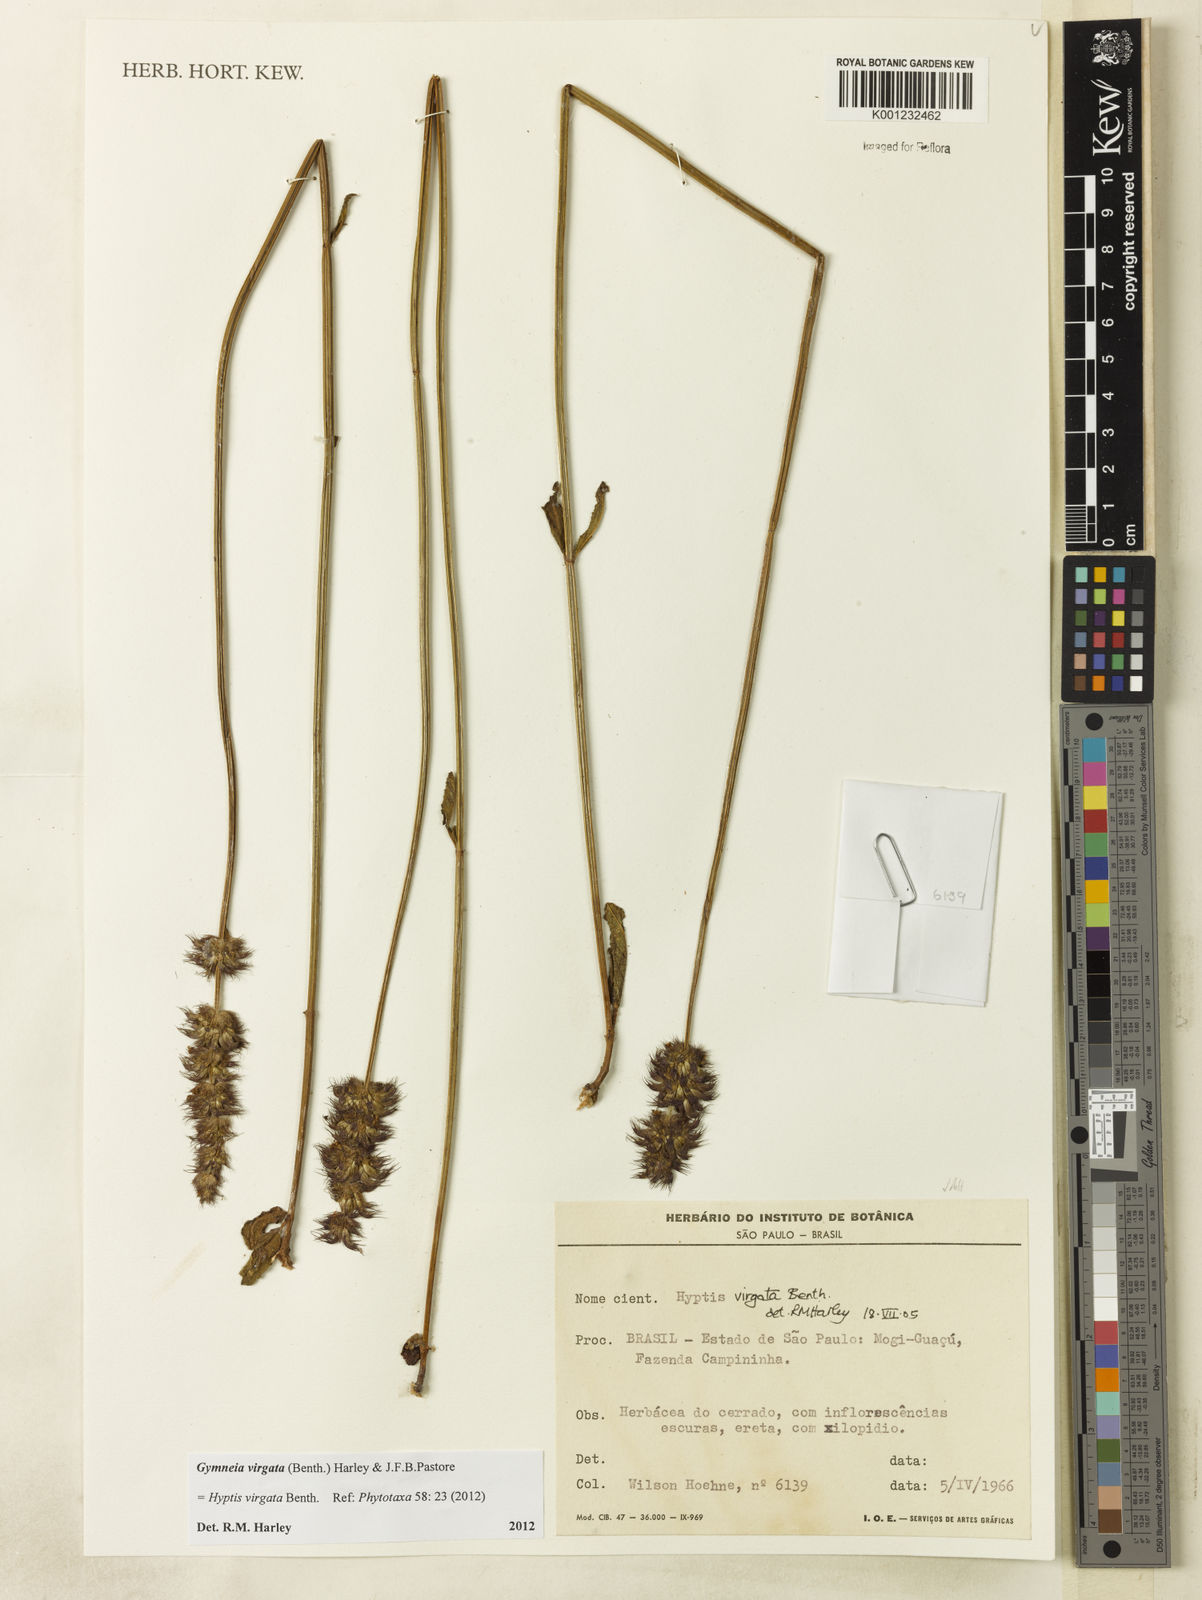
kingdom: Plantae
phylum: Tracheophyta
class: Magnoliopsida
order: Lamiales
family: Lamiaceae
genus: Gymneia
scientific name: Gymneia virgata
